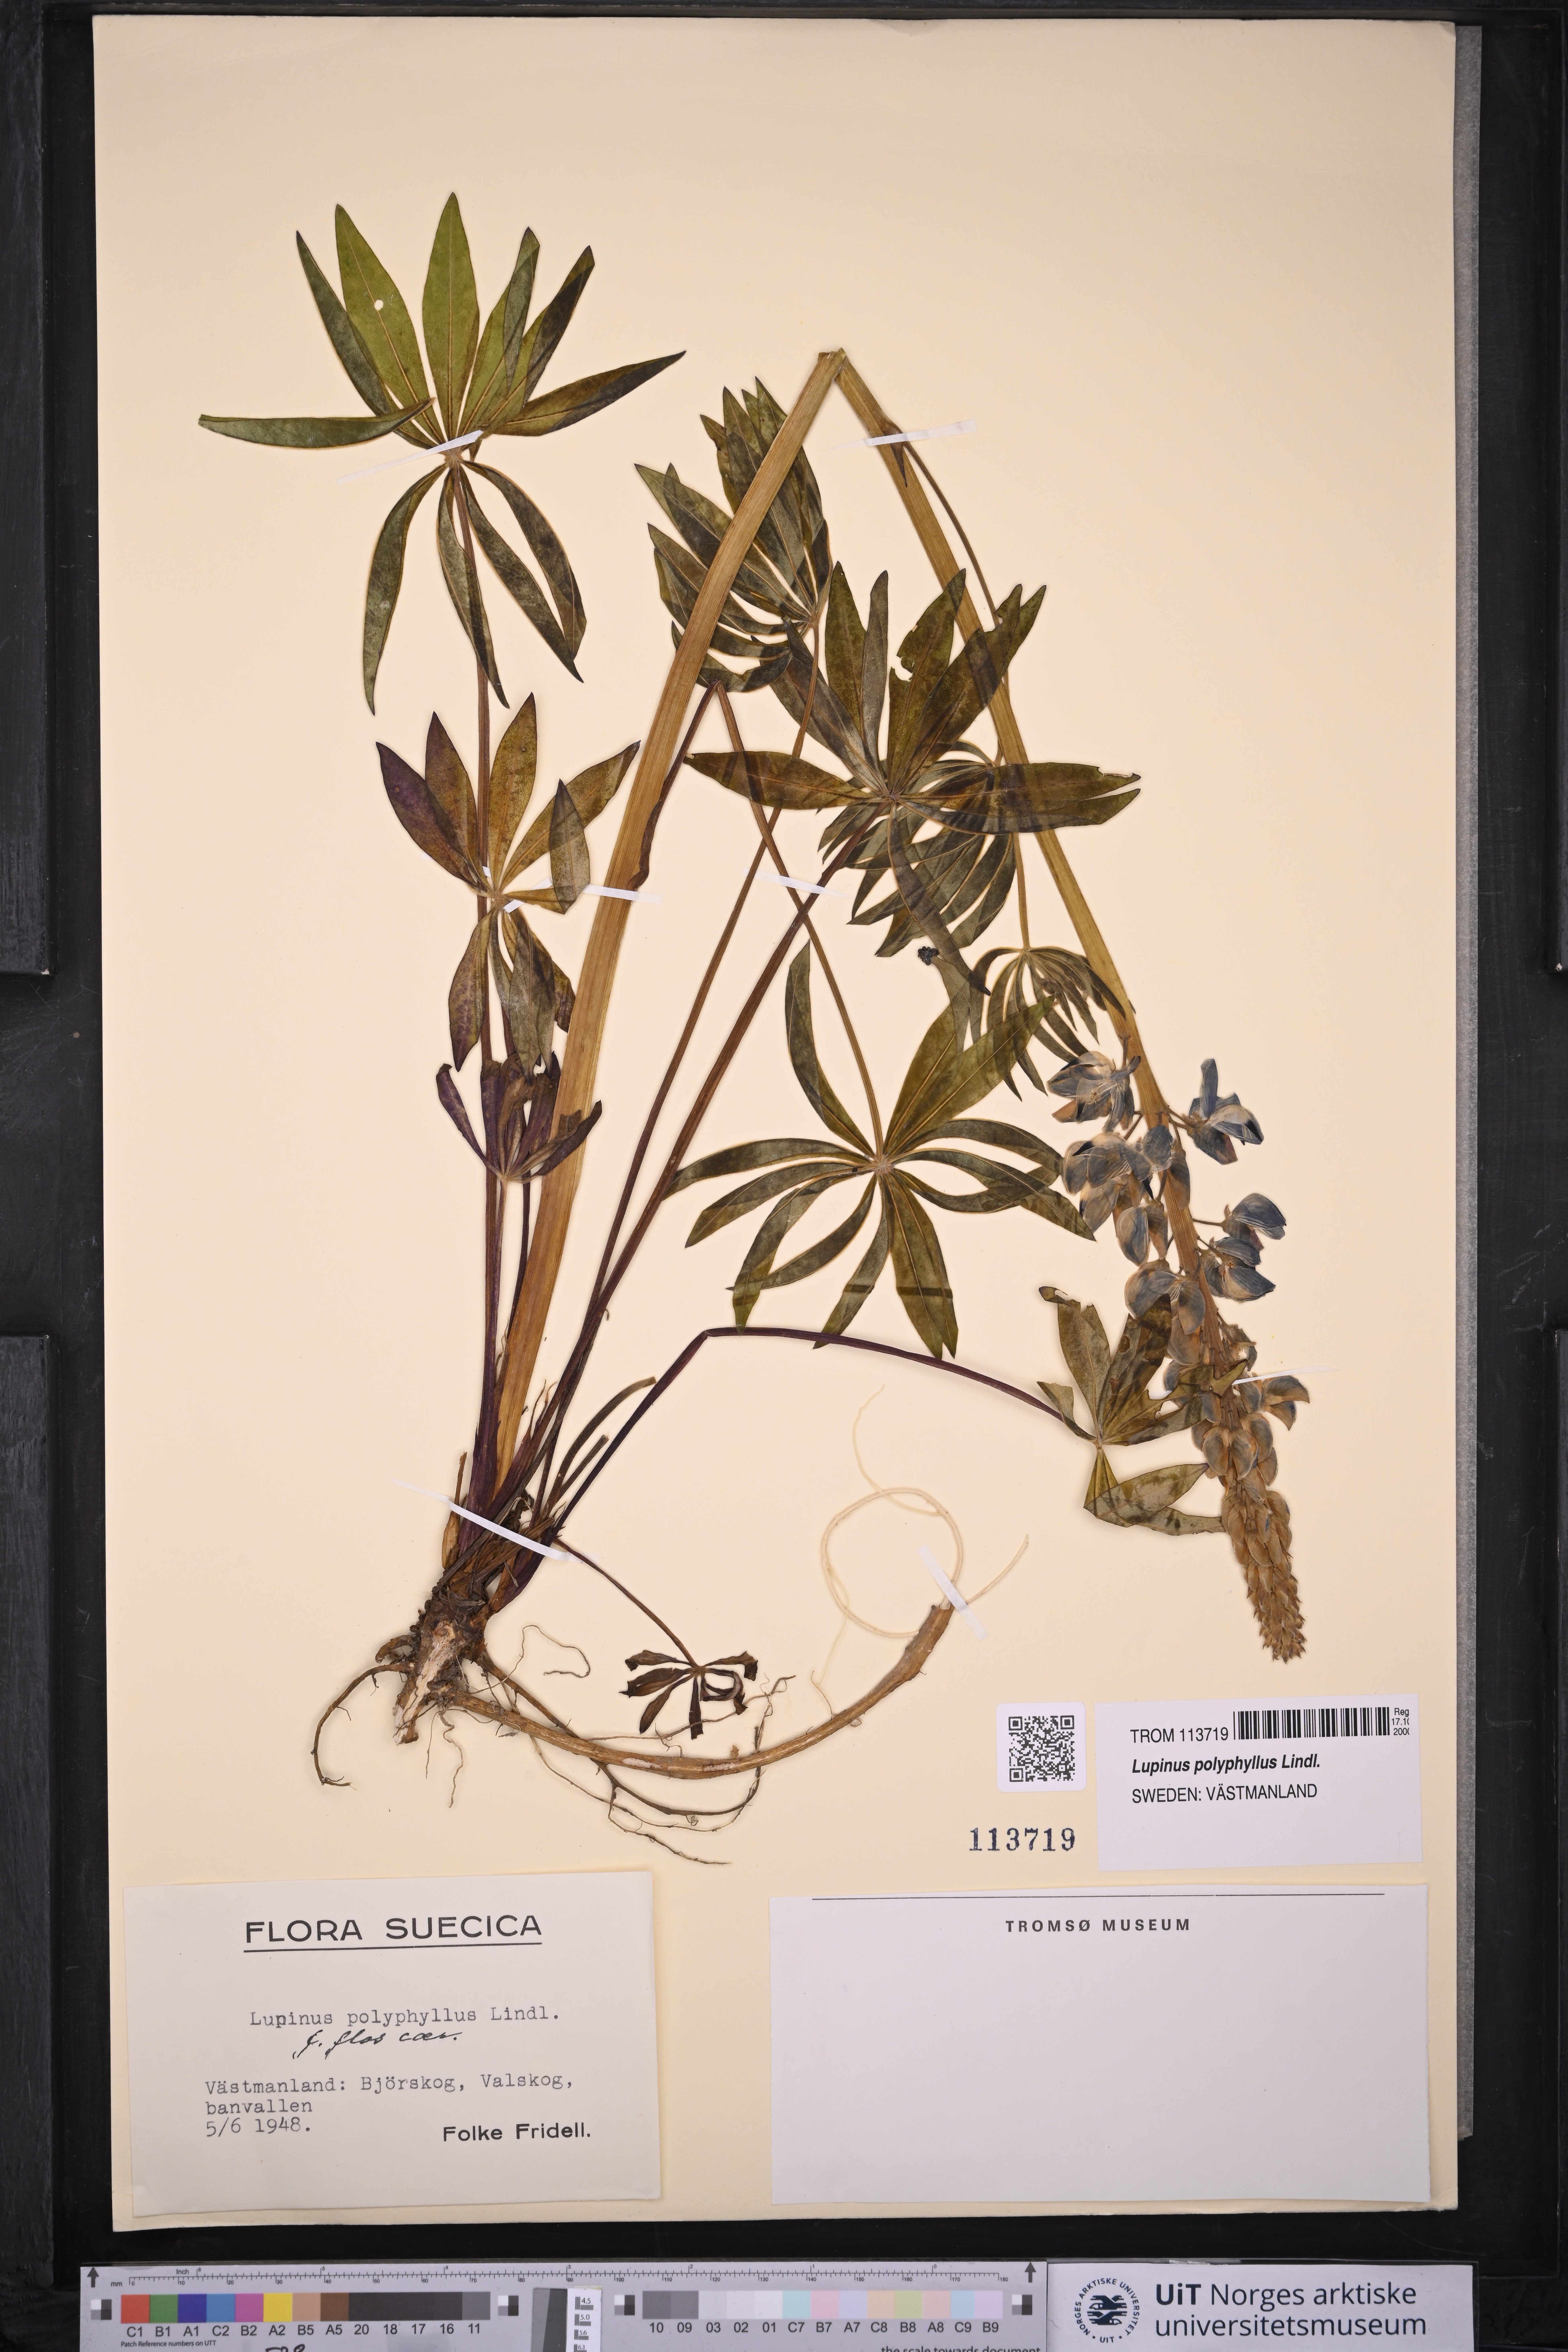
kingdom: Plantae
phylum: Tracheophyta
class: Magnoliopsida
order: Fabales
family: Fabaceae
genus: Lupinus
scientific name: Lupinus polyphyllus
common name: Garden lupin
